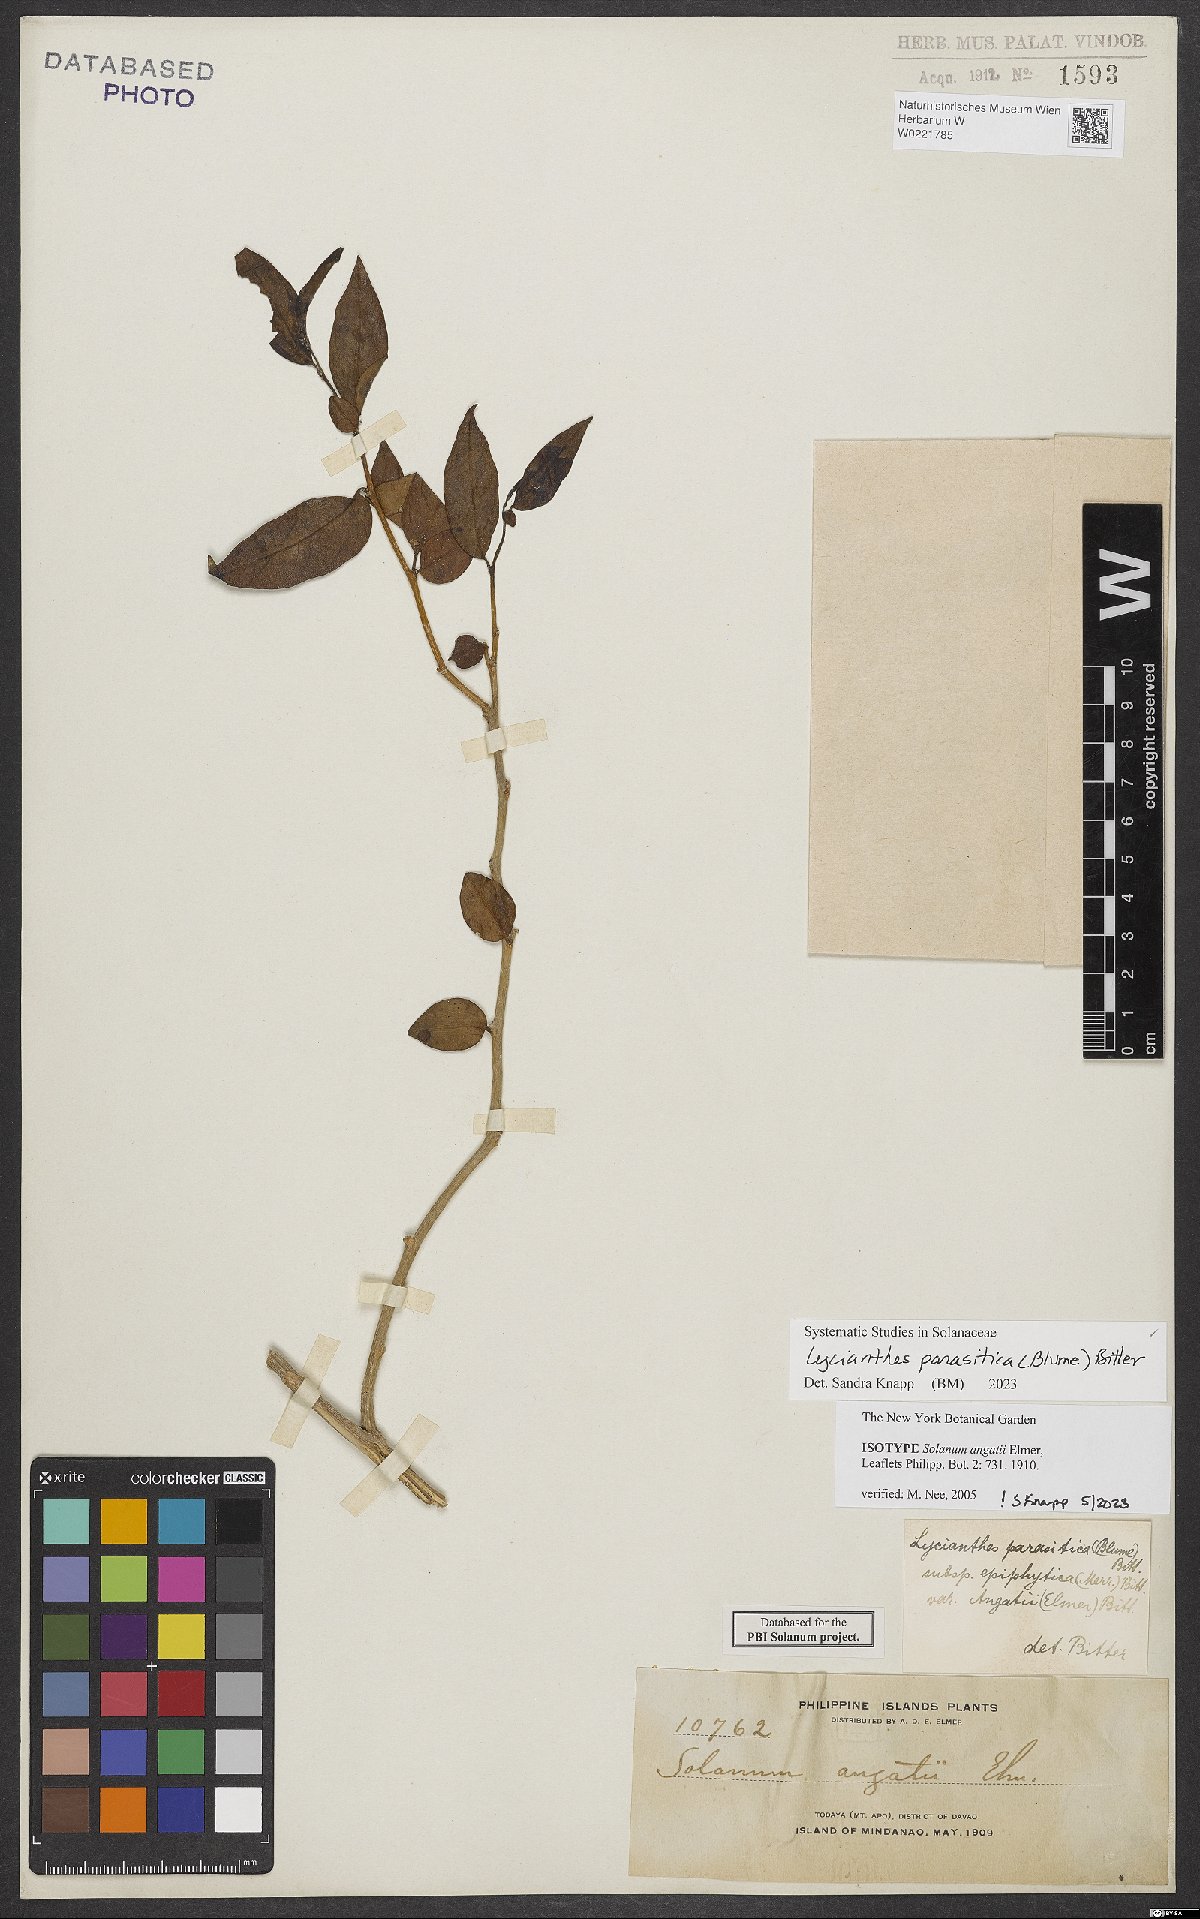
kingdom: Plantae
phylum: Tracheophyta
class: Magnoliopsida
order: Solanales
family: Solanaceae
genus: Lycianthes
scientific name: Lycianthes parasitica
